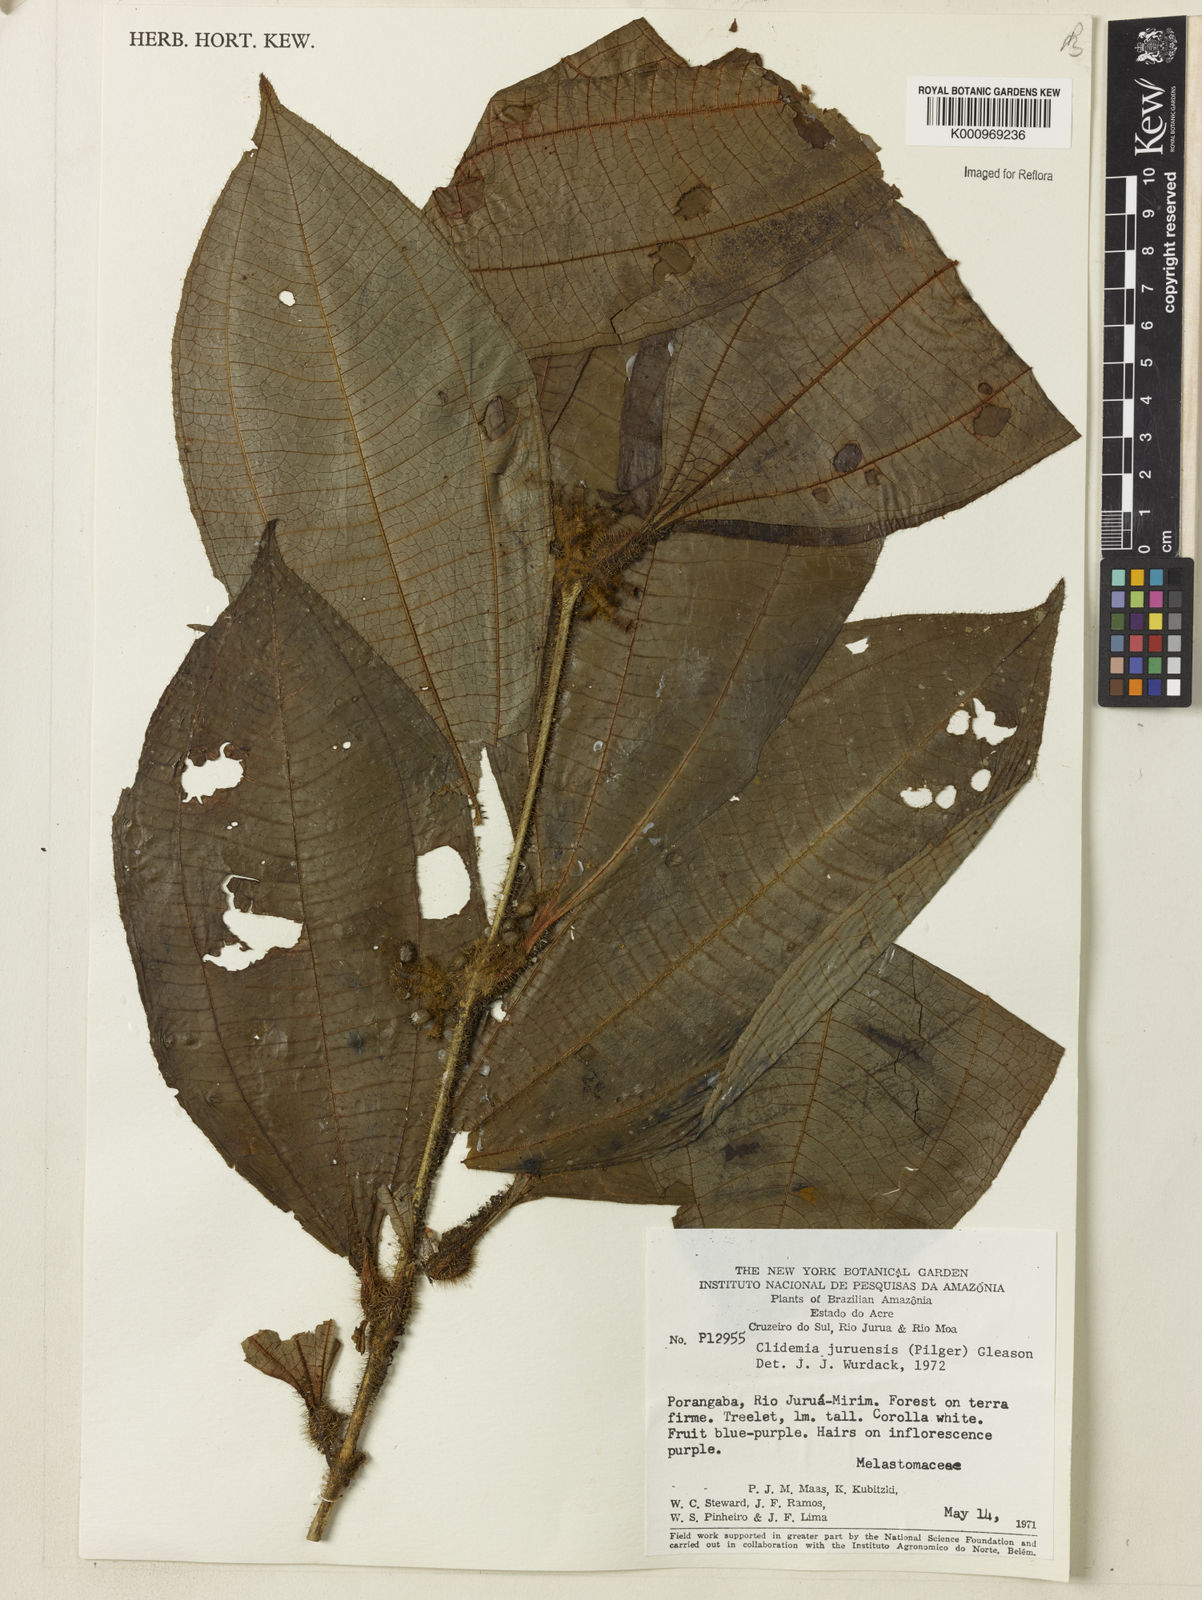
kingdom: Plantae
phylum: Tracheophyta
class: Magnoliopsida
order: Myrtales
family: Melastomataceae
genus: Miconia
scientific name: Miconia formicojuruensis
